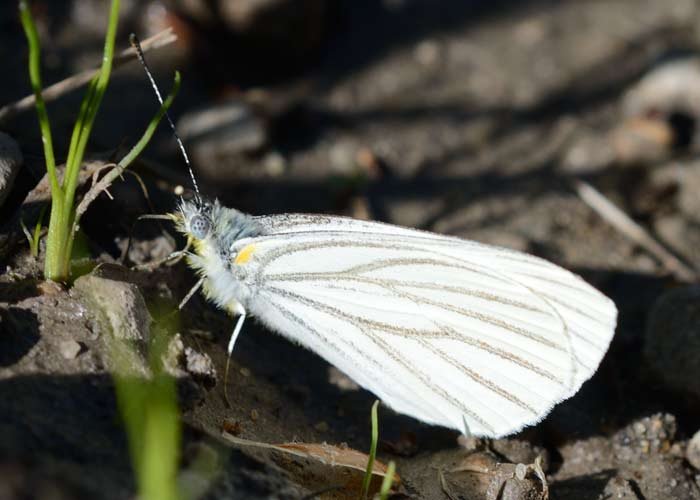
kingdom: Animalia
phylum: Arthropoda
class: Insecta
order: Lepidoptera
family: Pieridae
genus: Pieris
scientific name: Pieris oleracea
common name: Mustard White
